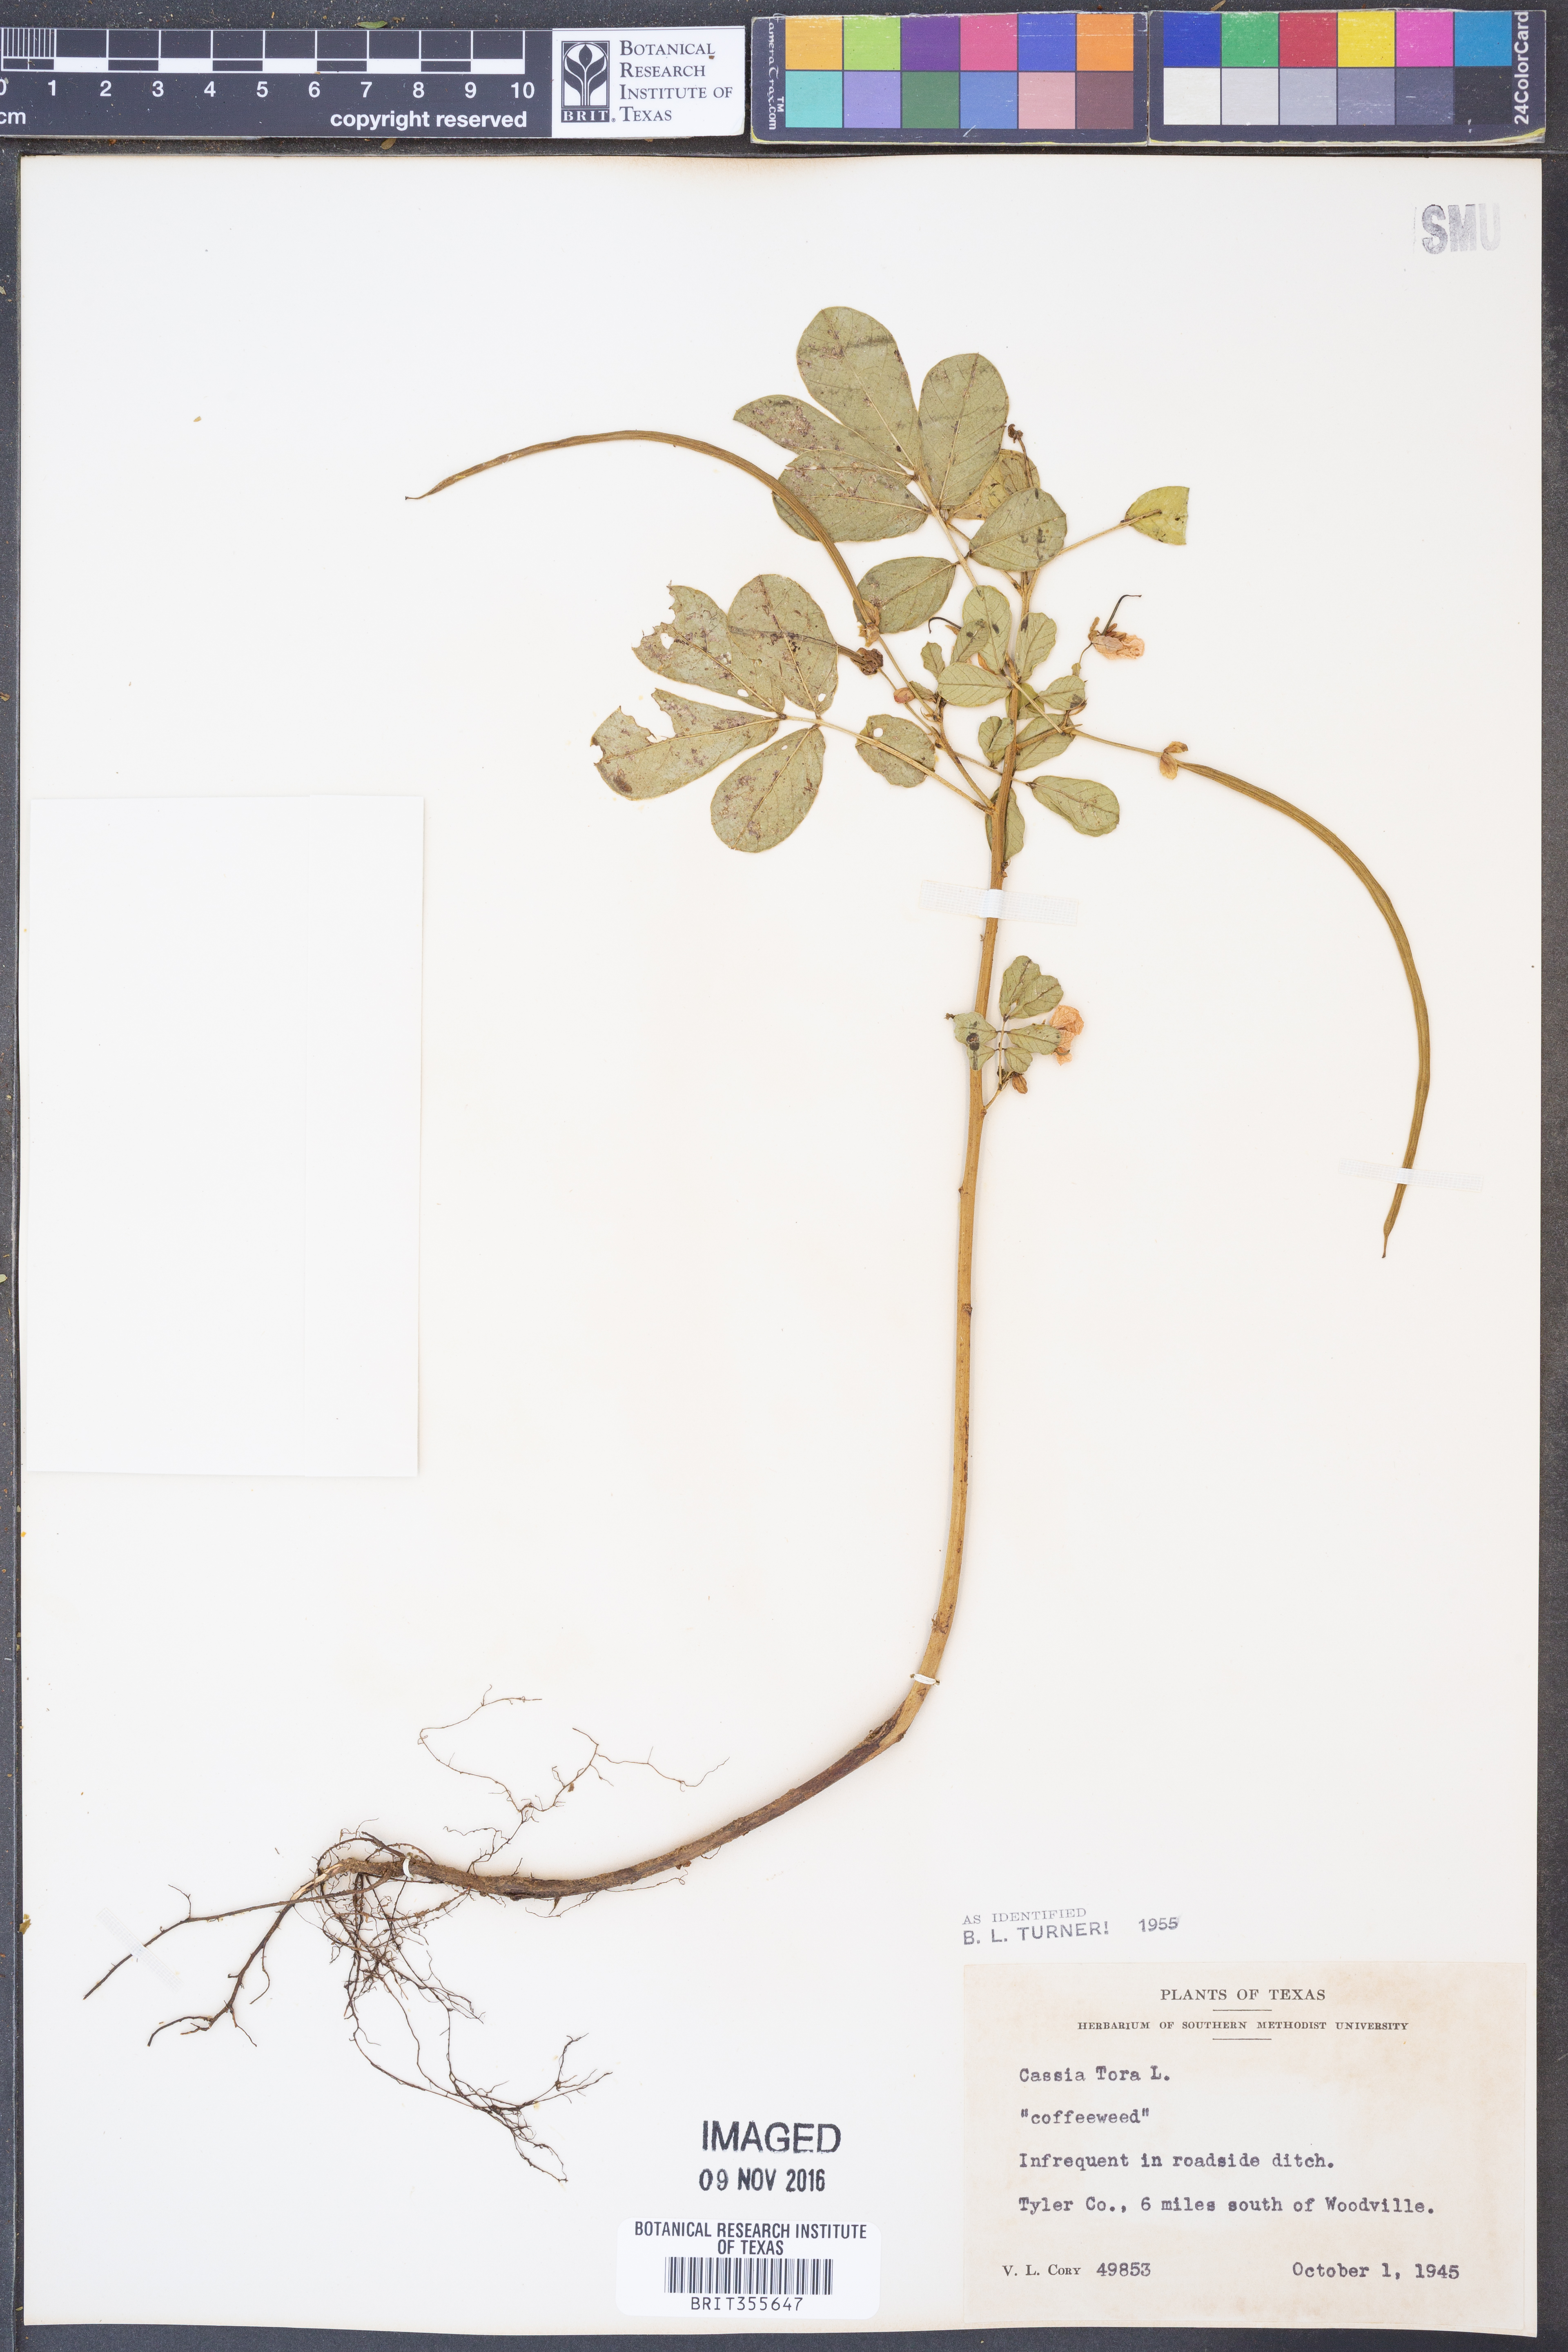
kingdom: Plantae
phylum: Tracheophyta
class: Magnoliopsida
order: Fabales
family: Fabaceae
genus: Senna
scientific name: Senna tora
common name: Sickle senna
